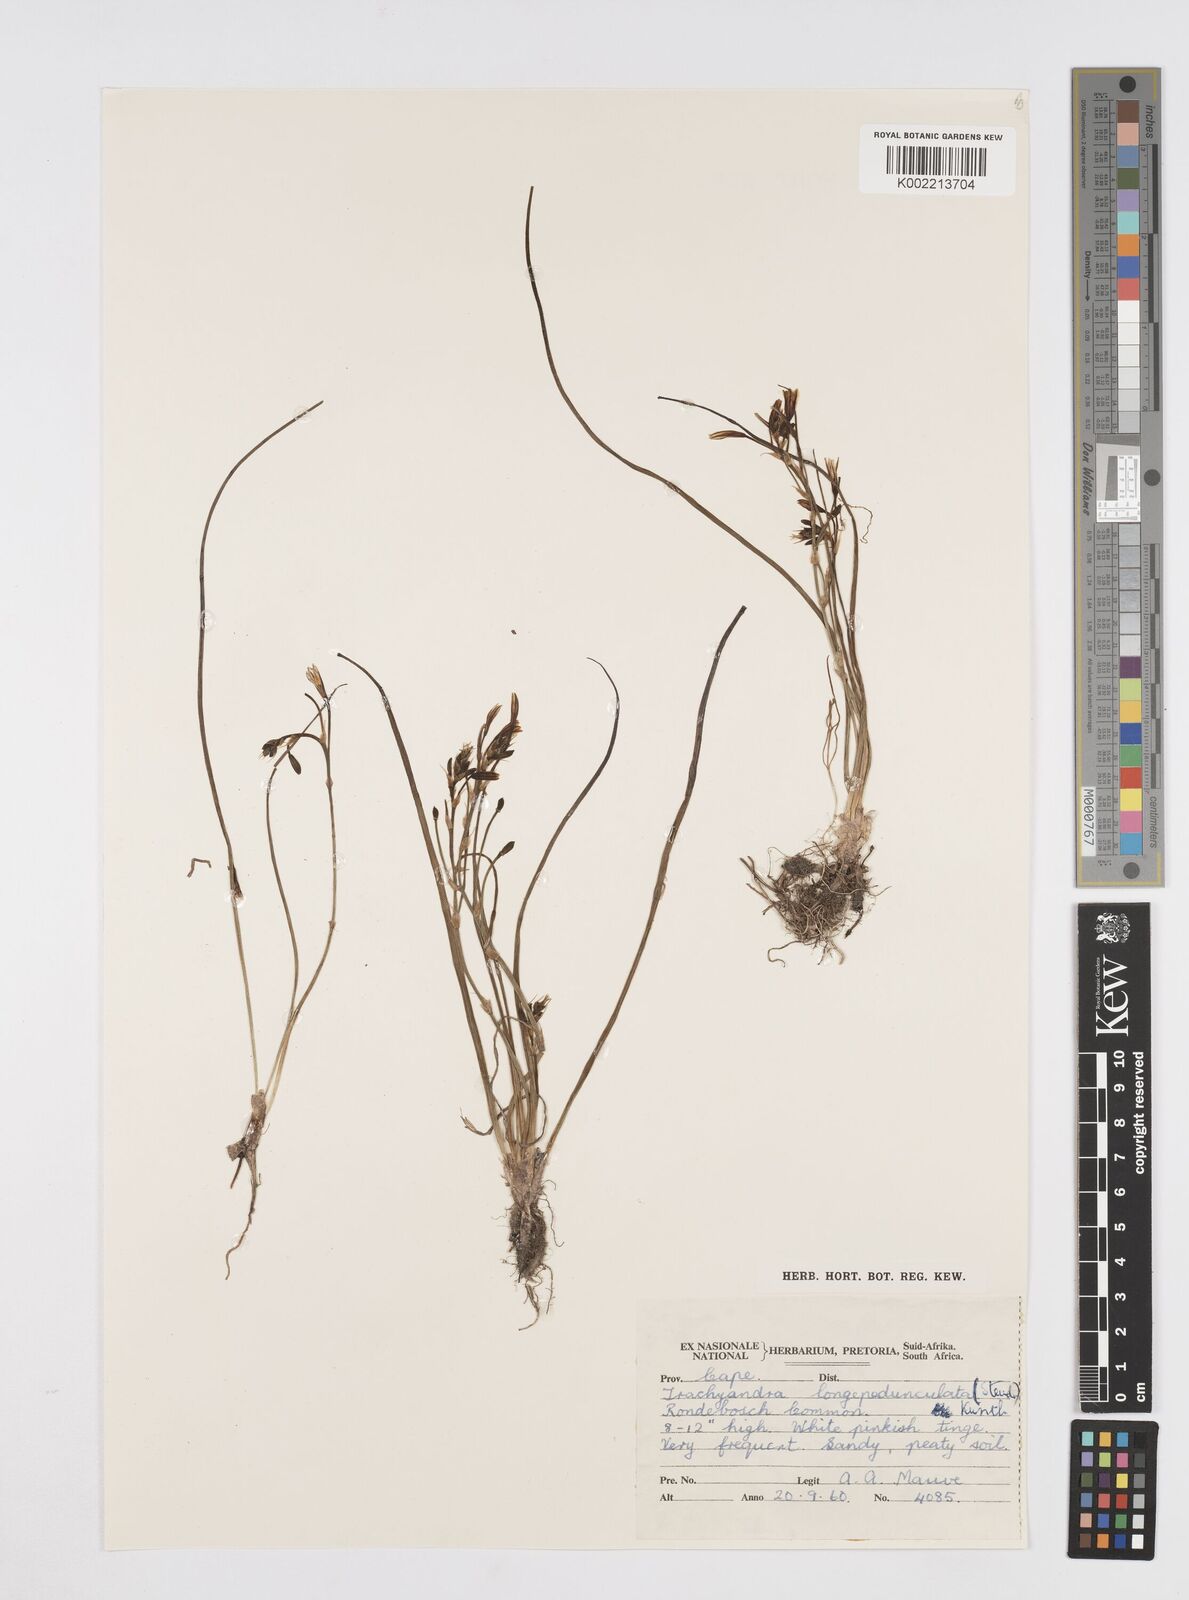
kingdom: Plantae
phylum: Tracheophyta
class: Liliopsida
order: Asparagales
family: Asphodelaceae
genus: Trachyandra
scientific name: Trachyandra filiformis
